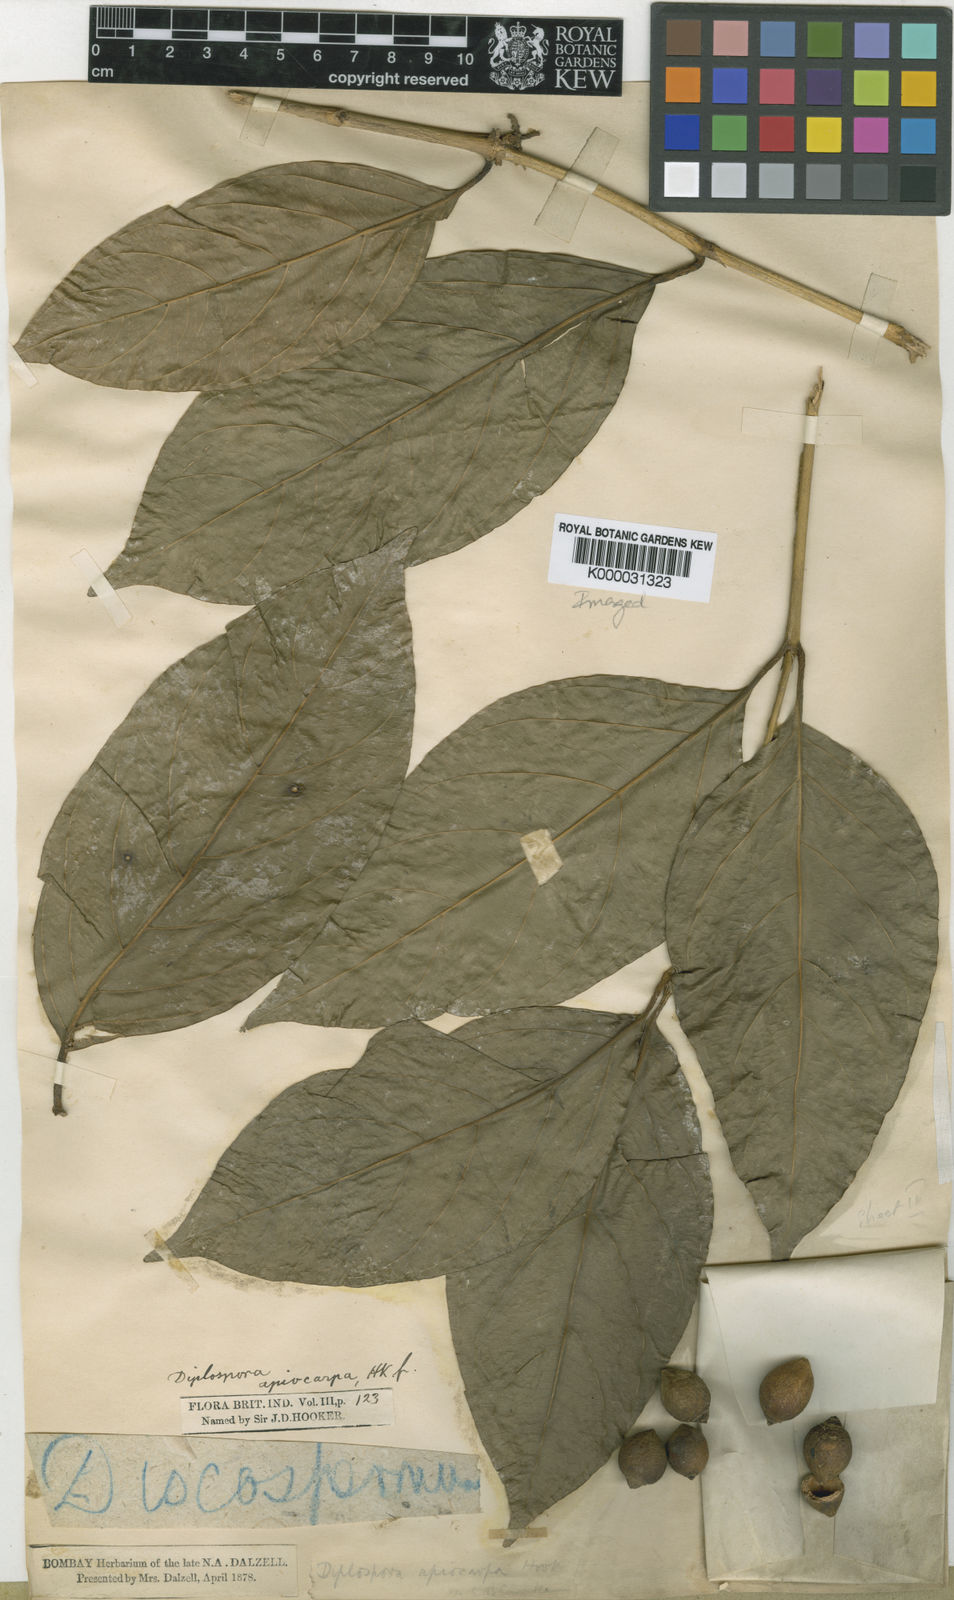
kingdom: Plantae
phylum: Tracheophyta
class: Magnoliopsida
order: Gentianales
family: Rubiaceae
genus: Discospermum
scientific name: Discospermum apiocarpum
